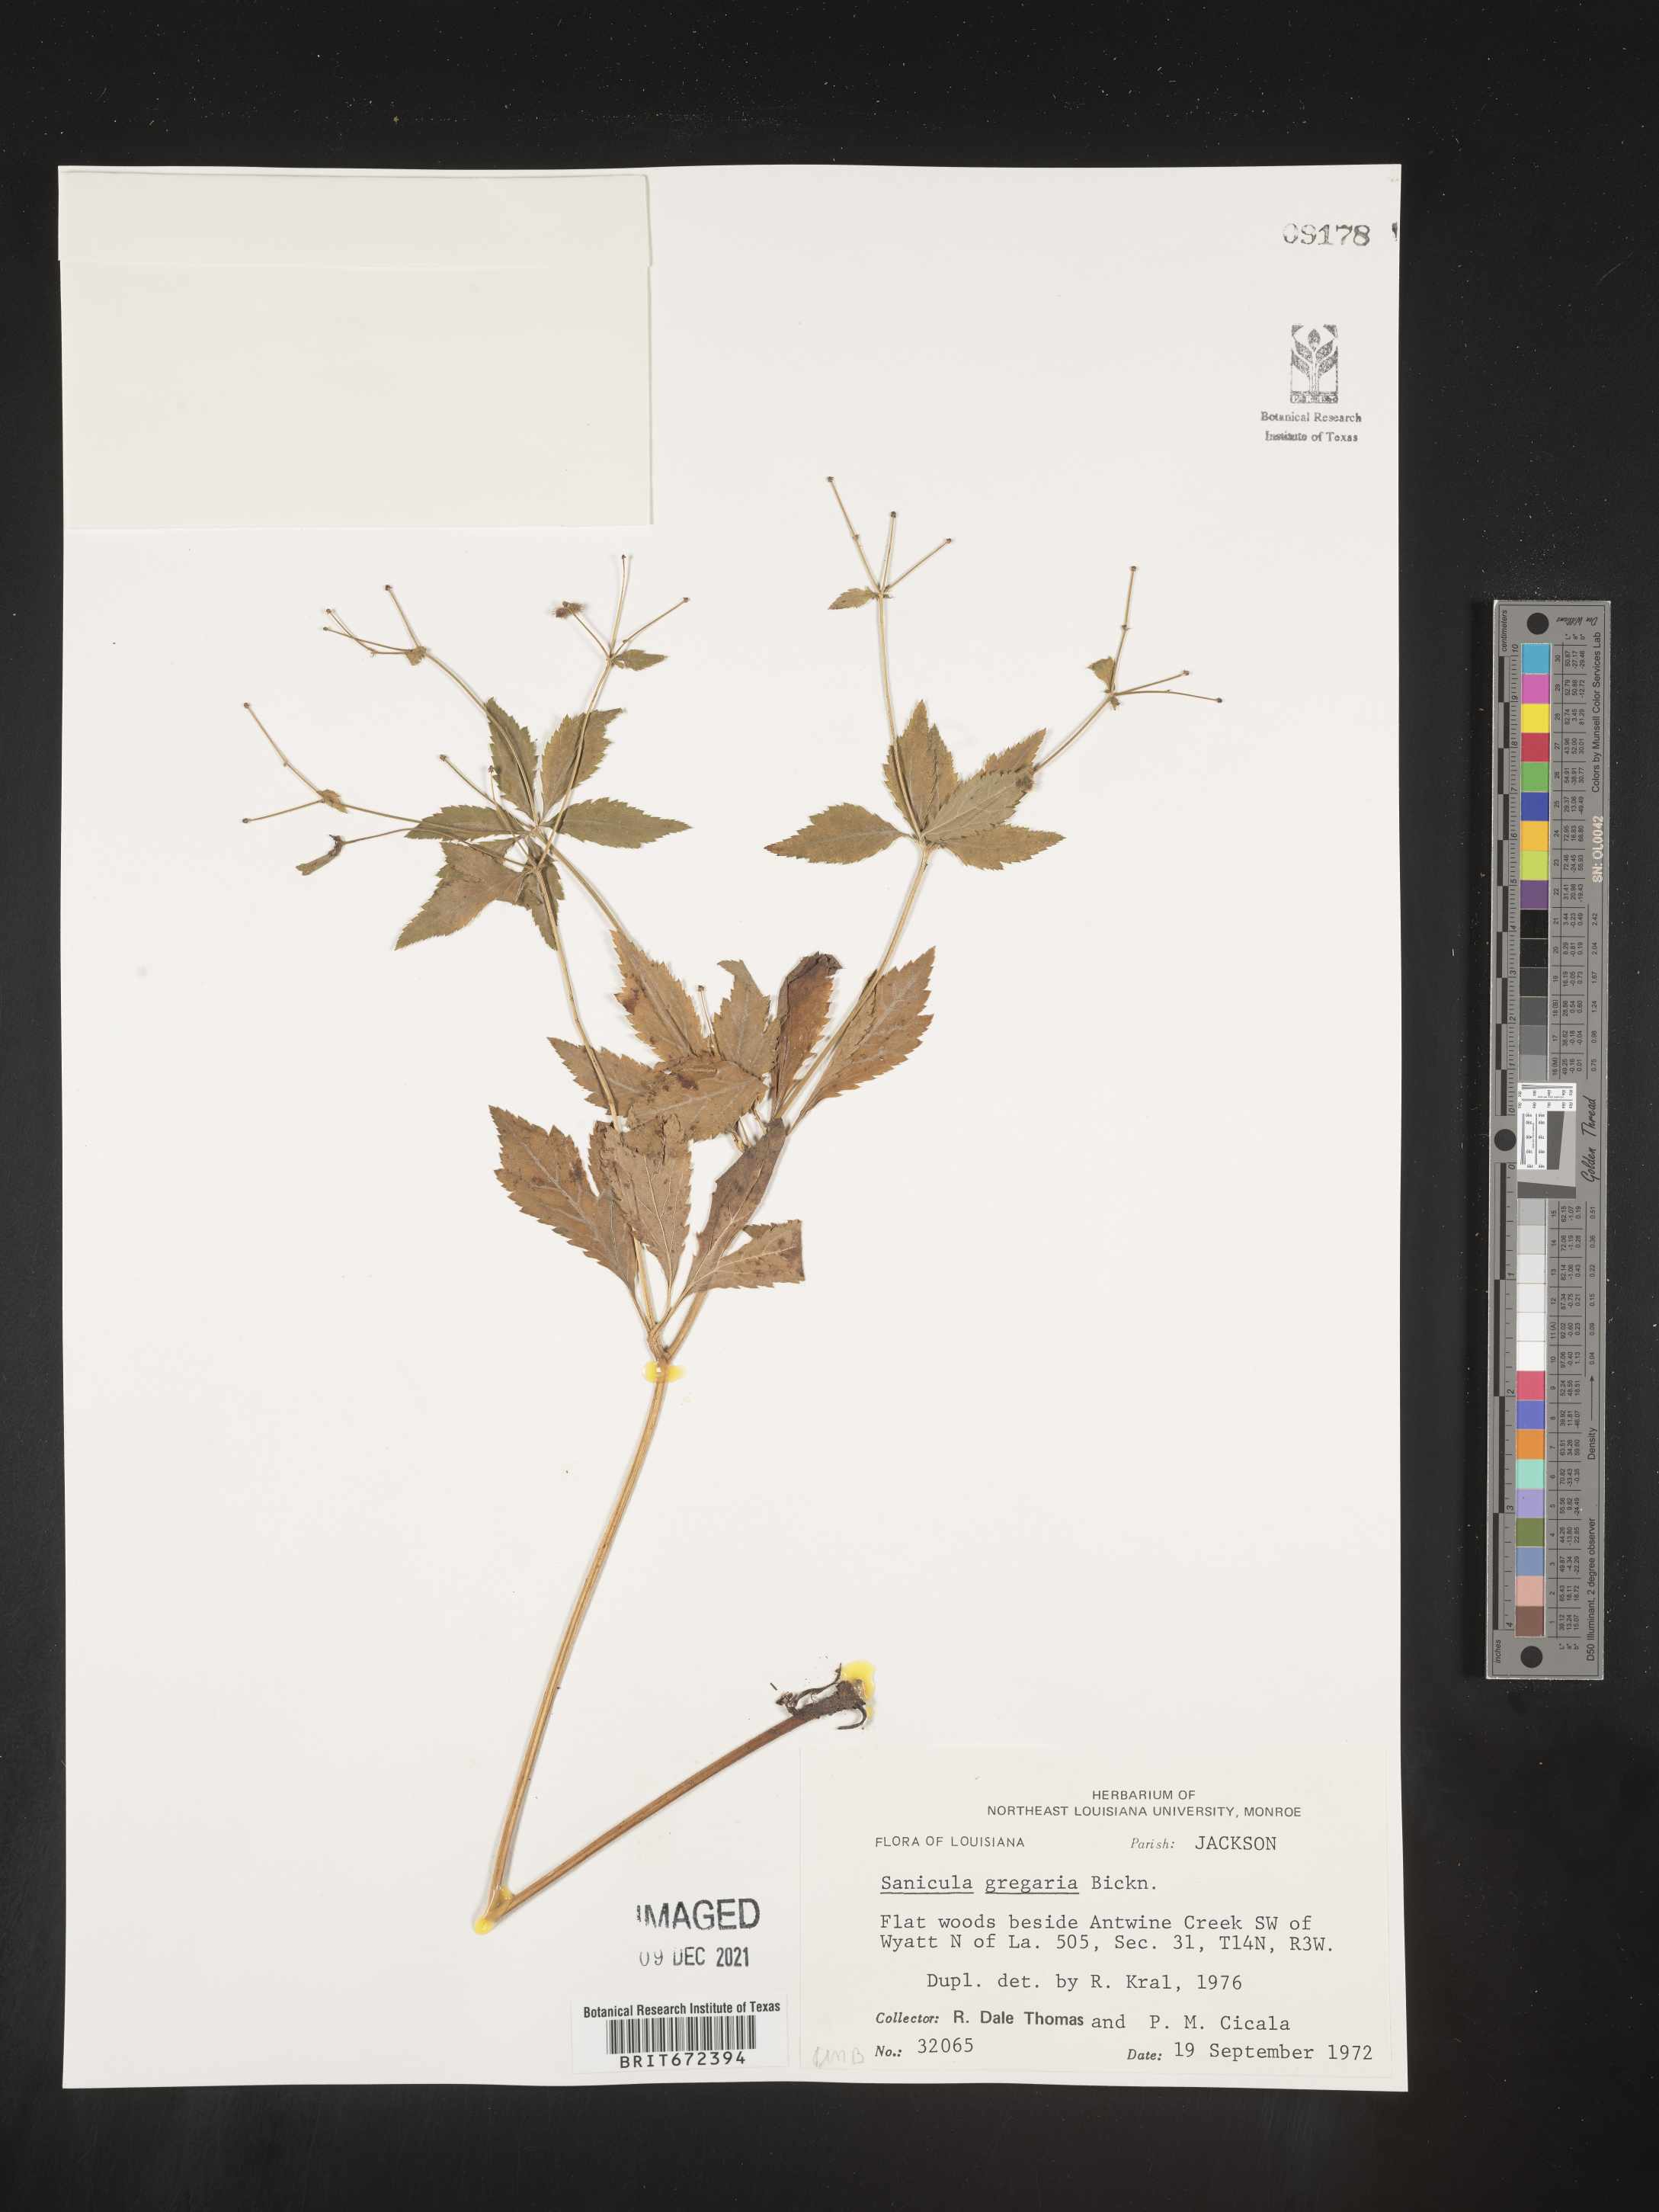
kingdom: Plantae
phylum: Tracheophyta
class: Magnoliopsida
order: Apiales
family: Apiaceae
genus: Sanicula
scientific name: Sanicula odorata
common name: Cluster sanicle
